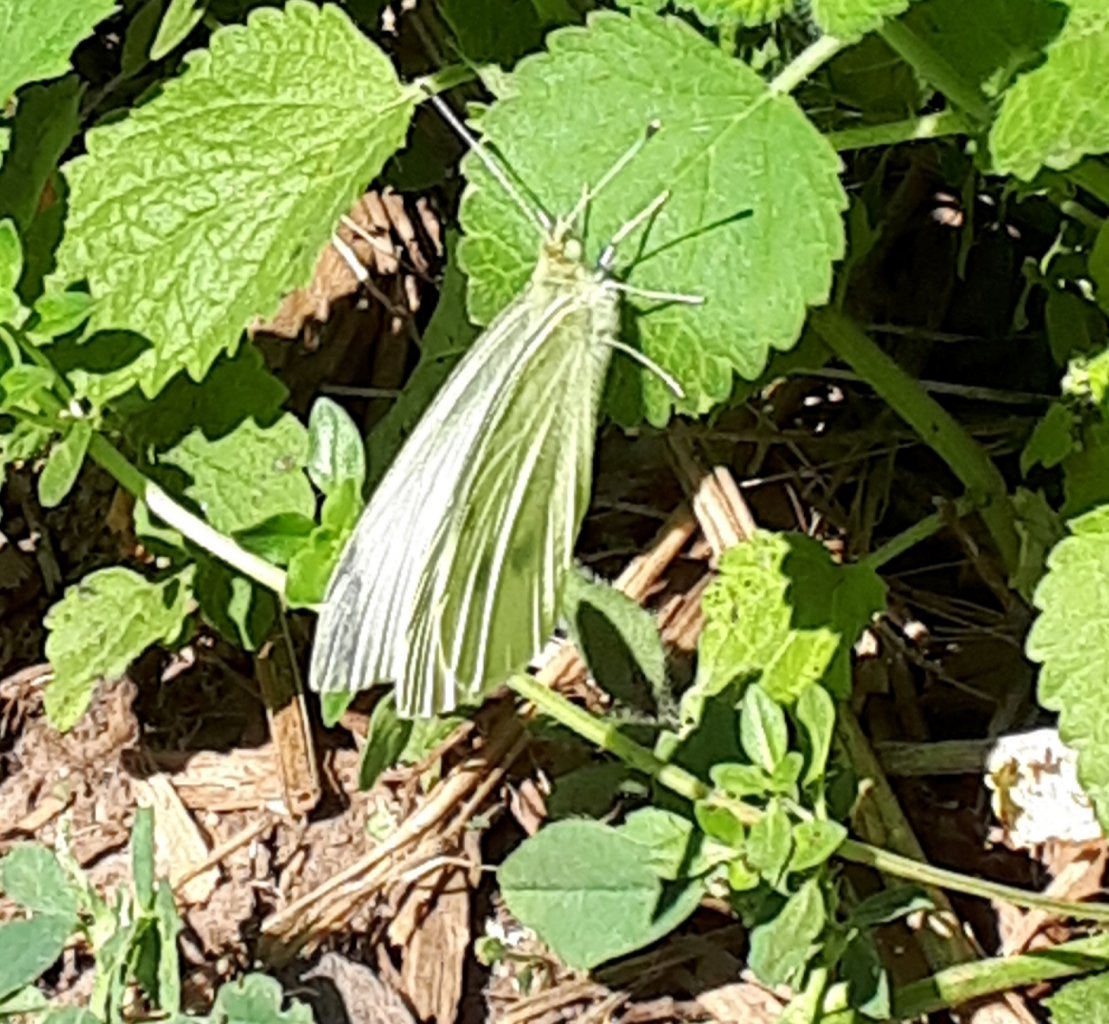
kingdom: Animalia
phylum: Arthropoda
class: Insecta
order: Lepidoptera
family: Pieridae
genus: Pieris
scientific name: Pieris rapae
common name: Cabbage White
